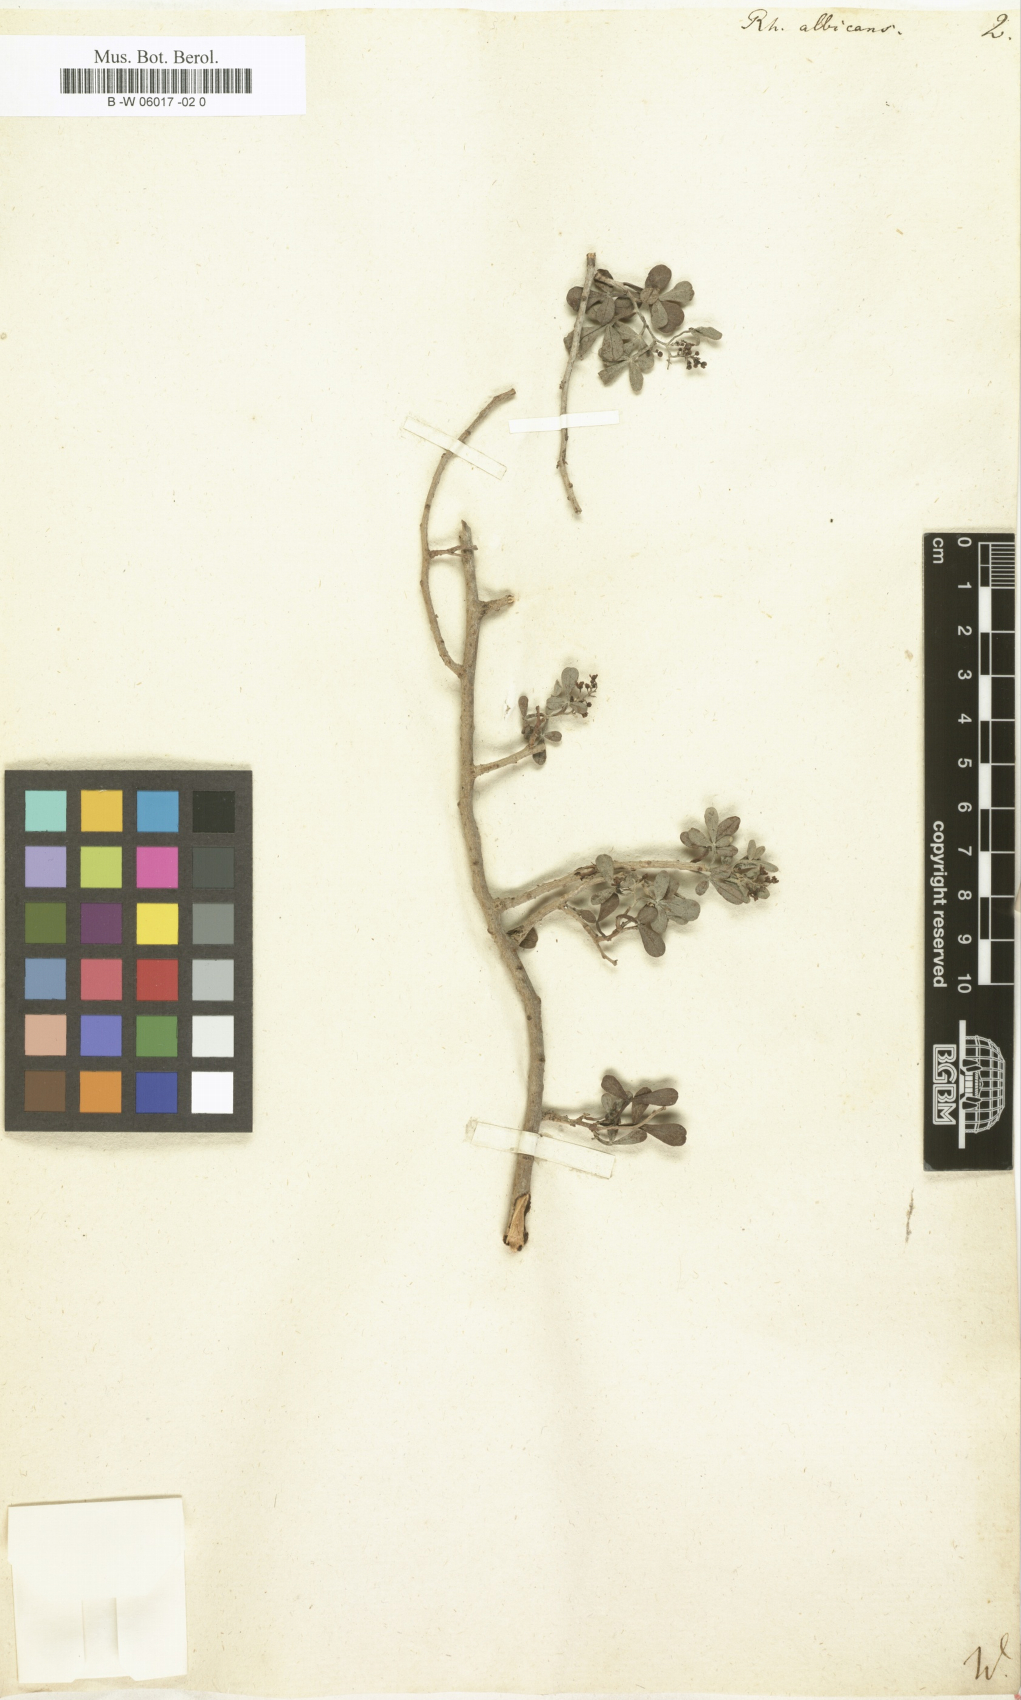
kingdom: Plantae
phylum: Tracheophyta
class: Magnoliopsida
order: Sapindales
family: Anacardiaceae
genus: Searsia
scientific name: Searsia tripartita
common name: Tripartite sumac
